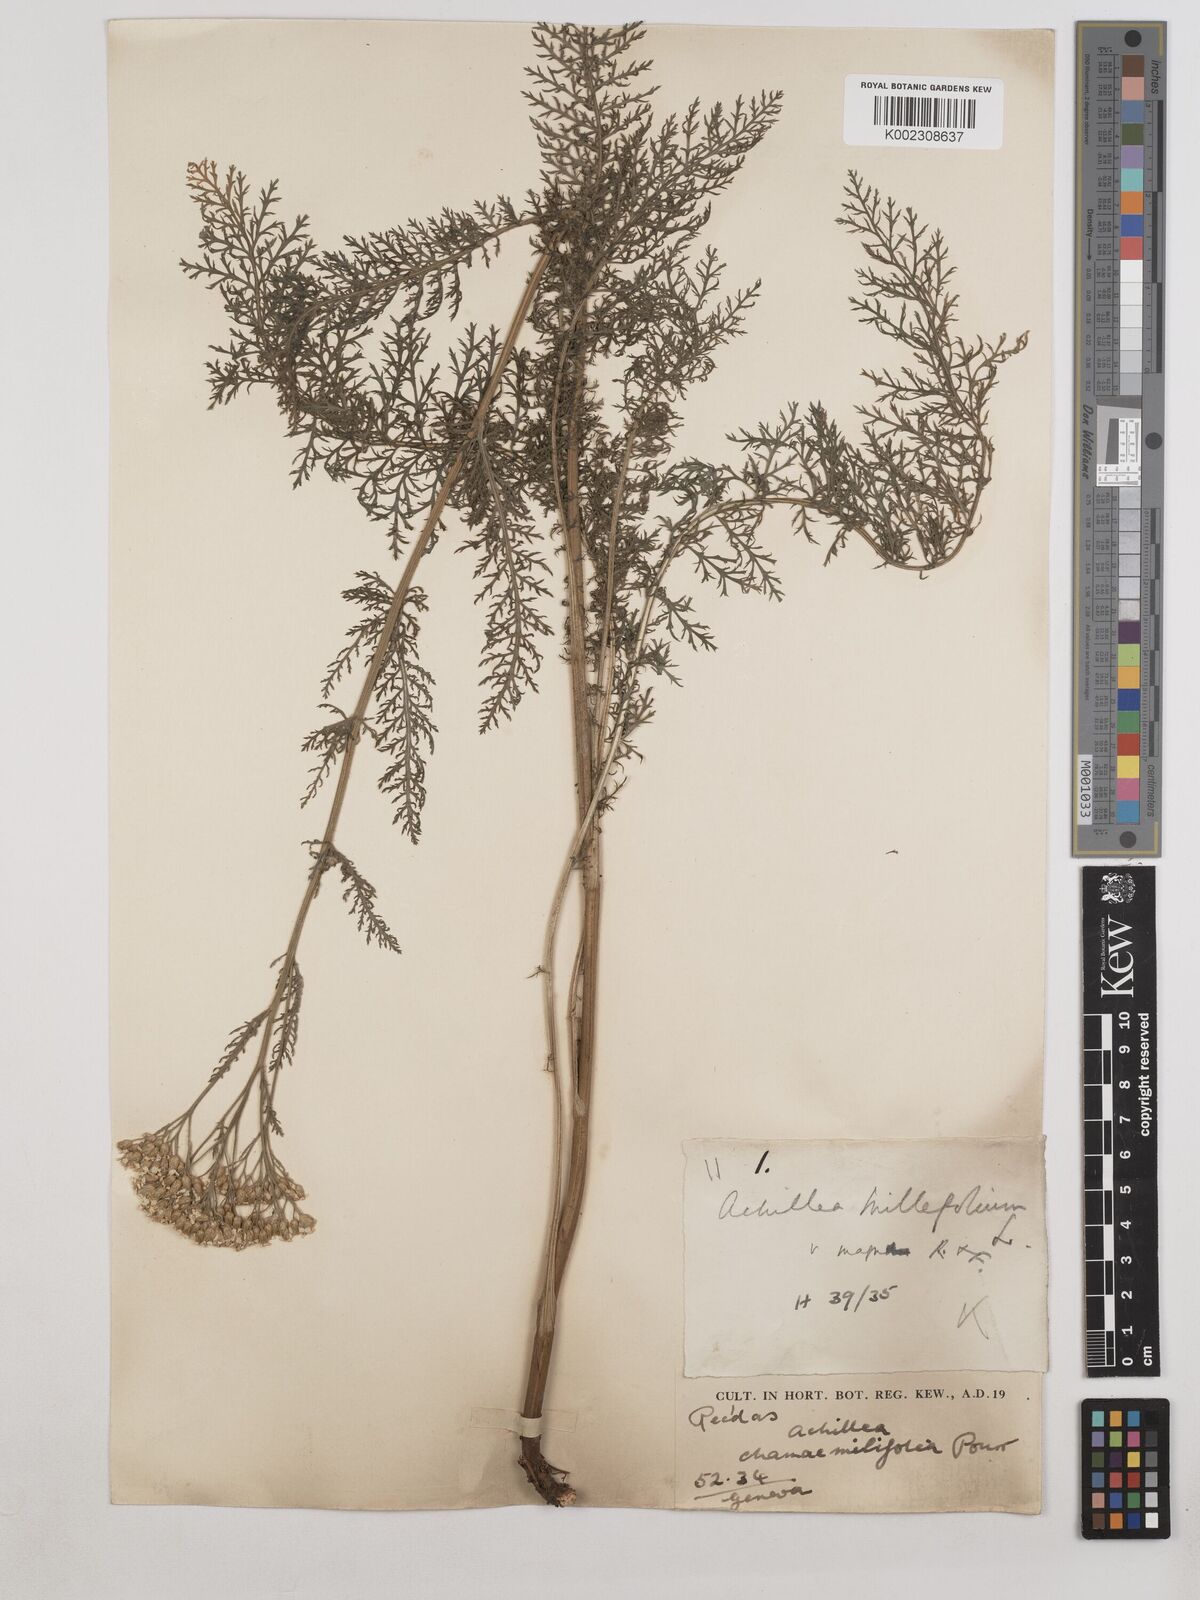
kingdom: Plantae
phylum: Tracheophyta
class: Magnoliopsida
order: Asterales
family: Asteraceae
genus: Achillea
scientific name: Achillea millefolium
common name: Yarrow
